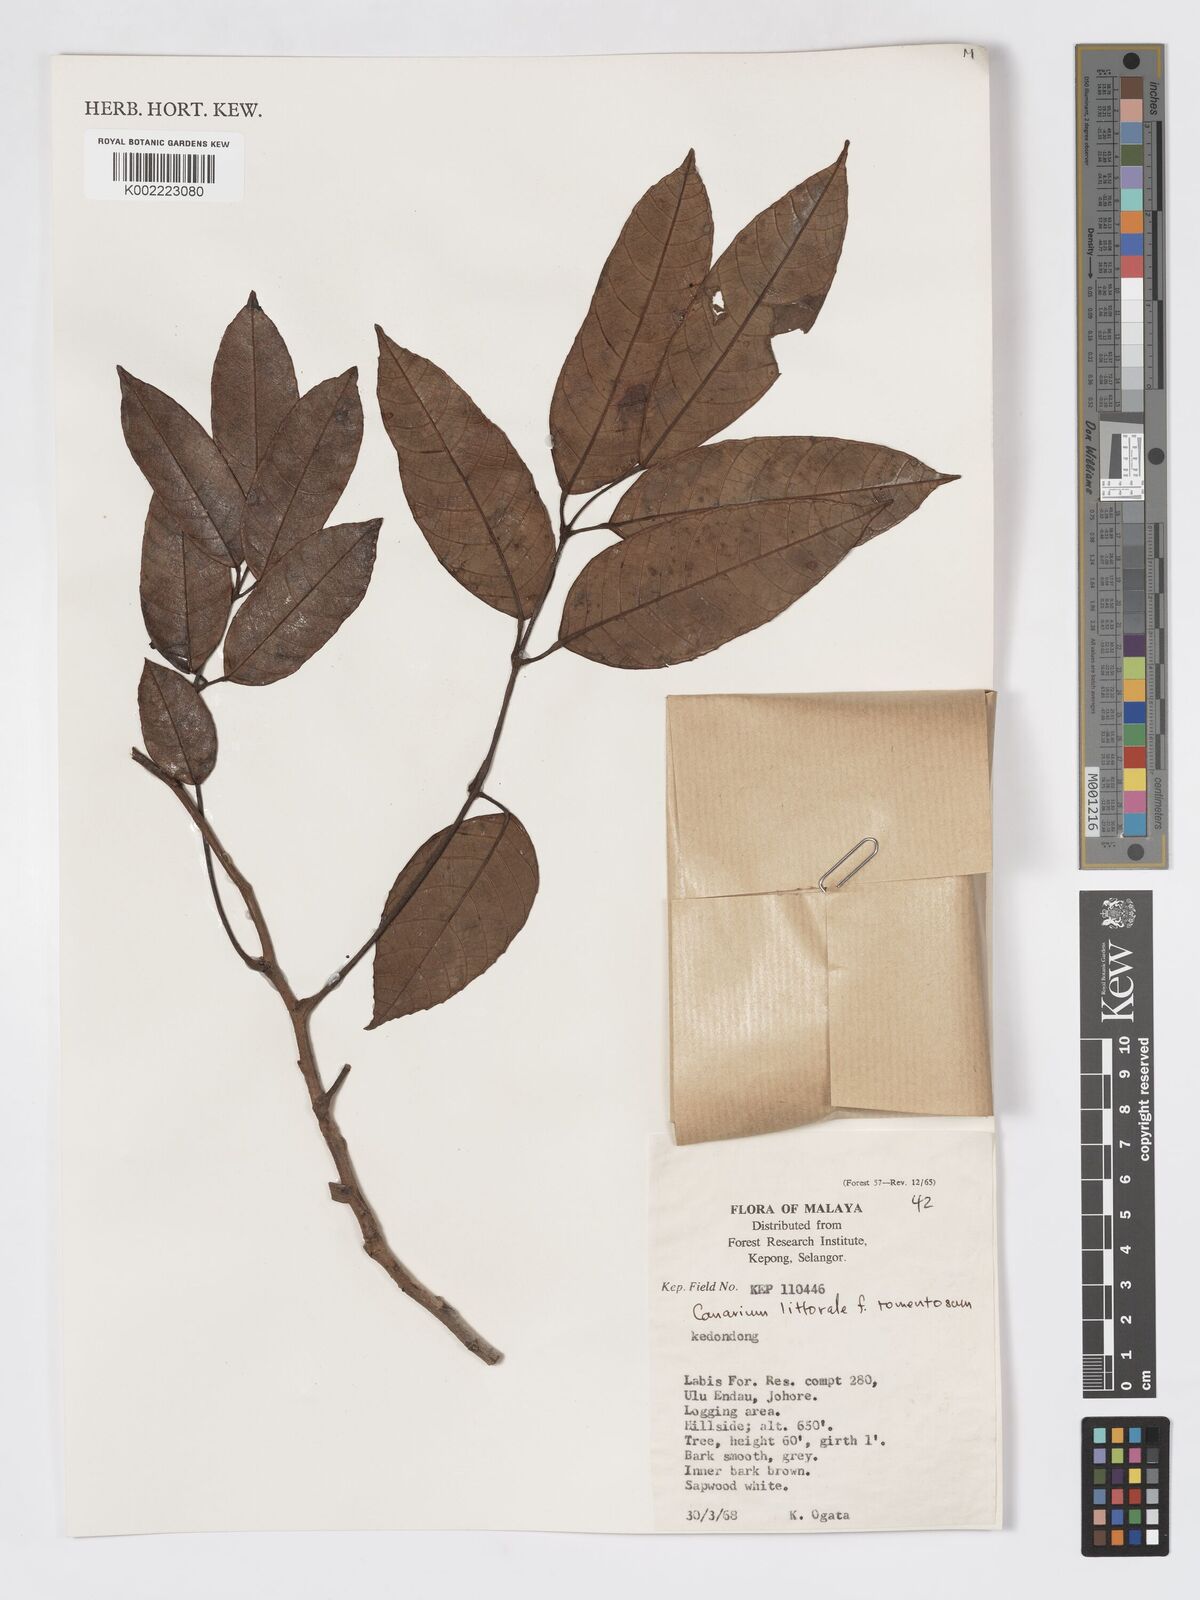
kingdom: Plantae
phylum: Tracheophyta
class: Magnoliopsida
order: Sapindales
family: Burseraceae
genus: Canarium
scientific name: Canarium littorale
